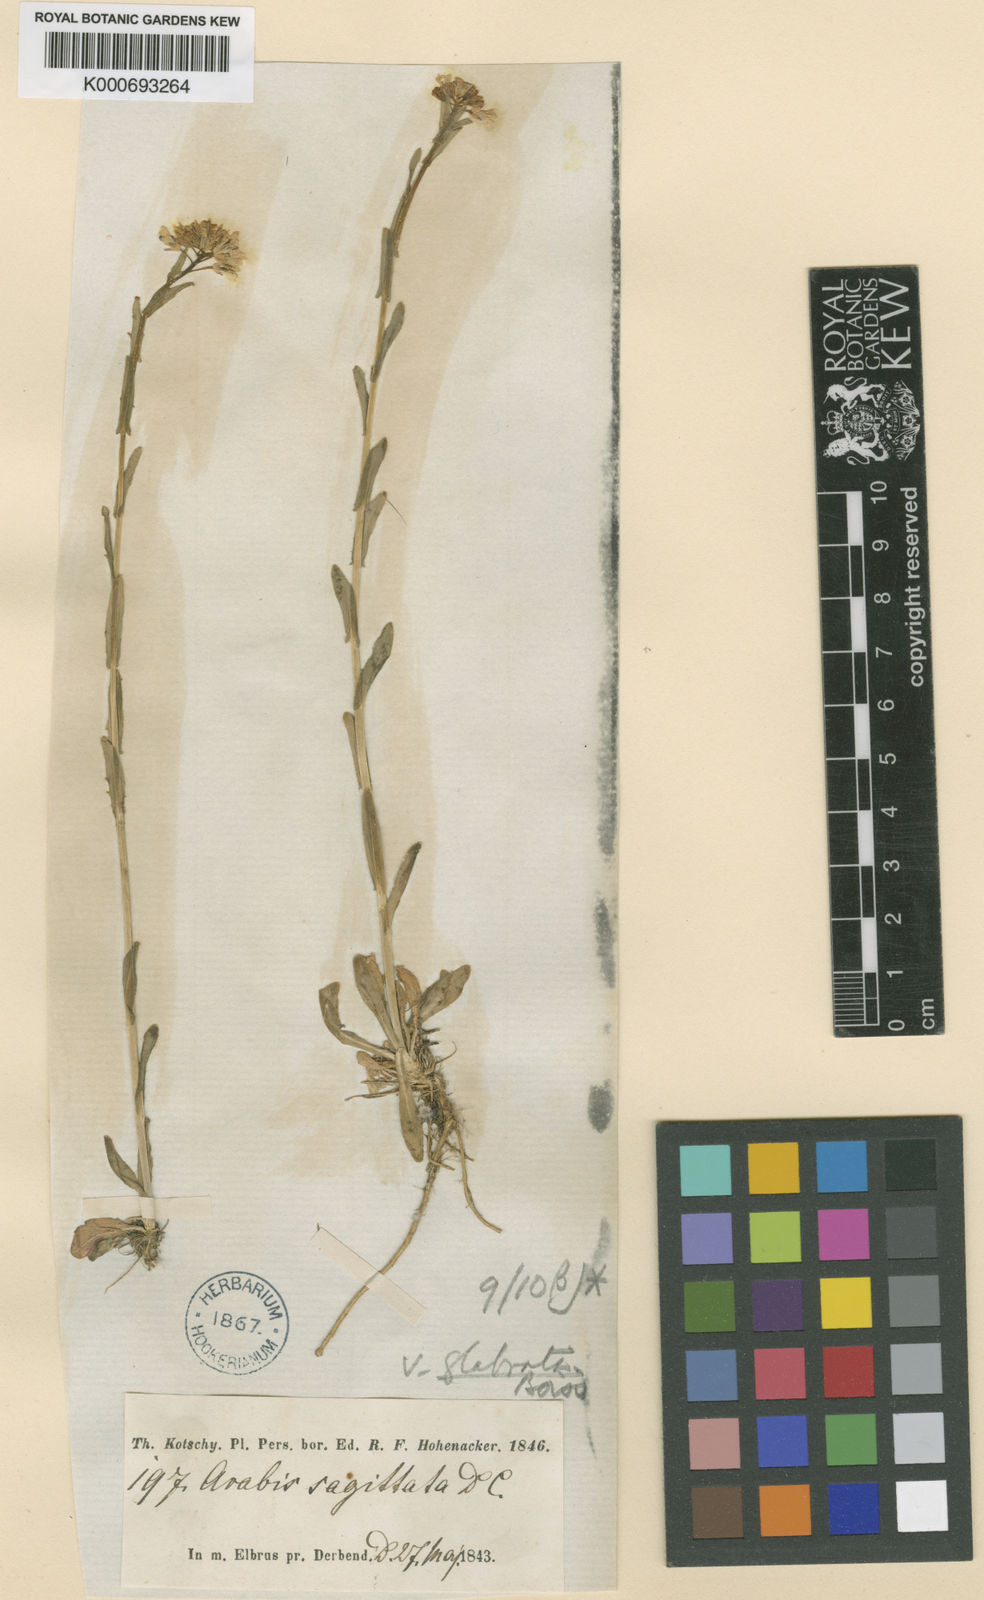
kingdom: Plantae
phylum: Tracheophyta
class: Magnoliopsida
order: Brassicales
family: Brassicaceae
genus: Arabis
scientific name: Arabis sagittata
